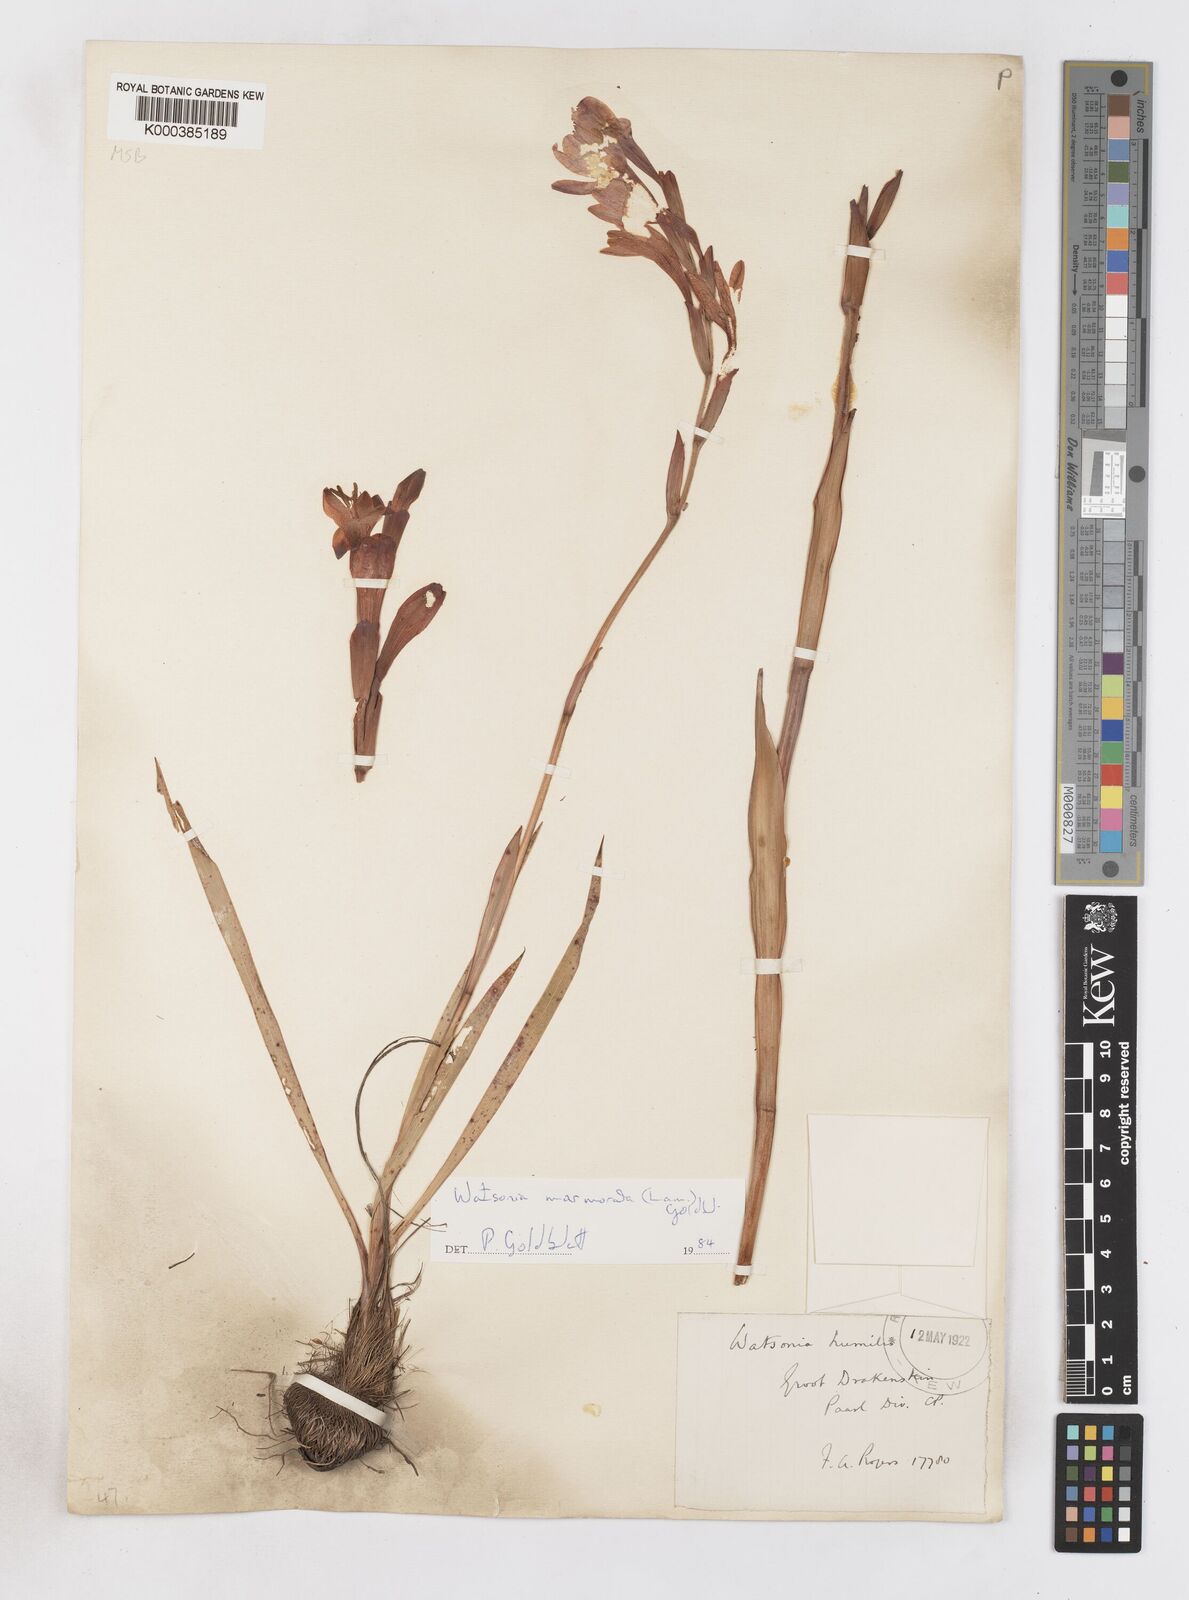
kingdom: Plantae
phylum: Tracheophyta
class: Liliopsida
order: Asparagales
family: Iridaceae
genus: Watsonia
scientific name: Watsonia humilis
